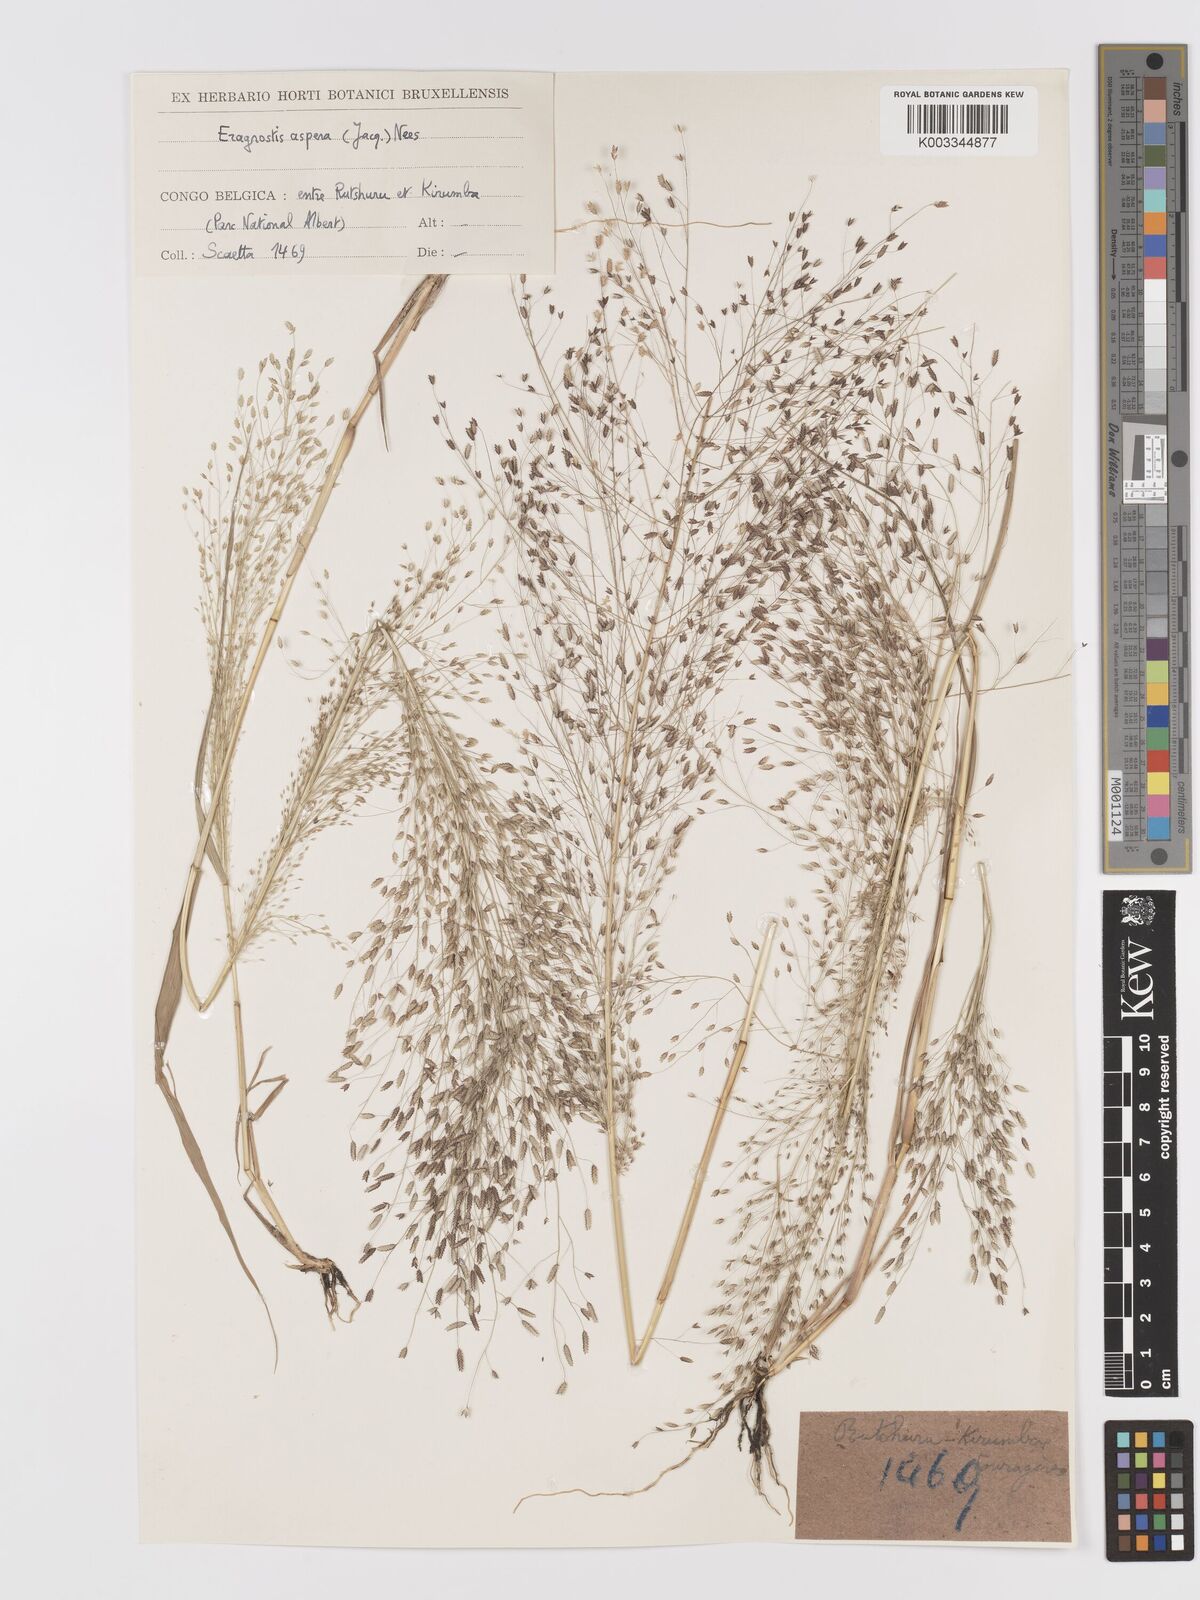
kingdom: Plantae
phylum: Tracheophyta
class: Liliopsida
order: Poales
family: Poaceae
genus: Eragrostis
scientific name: Eragrostis aspera
